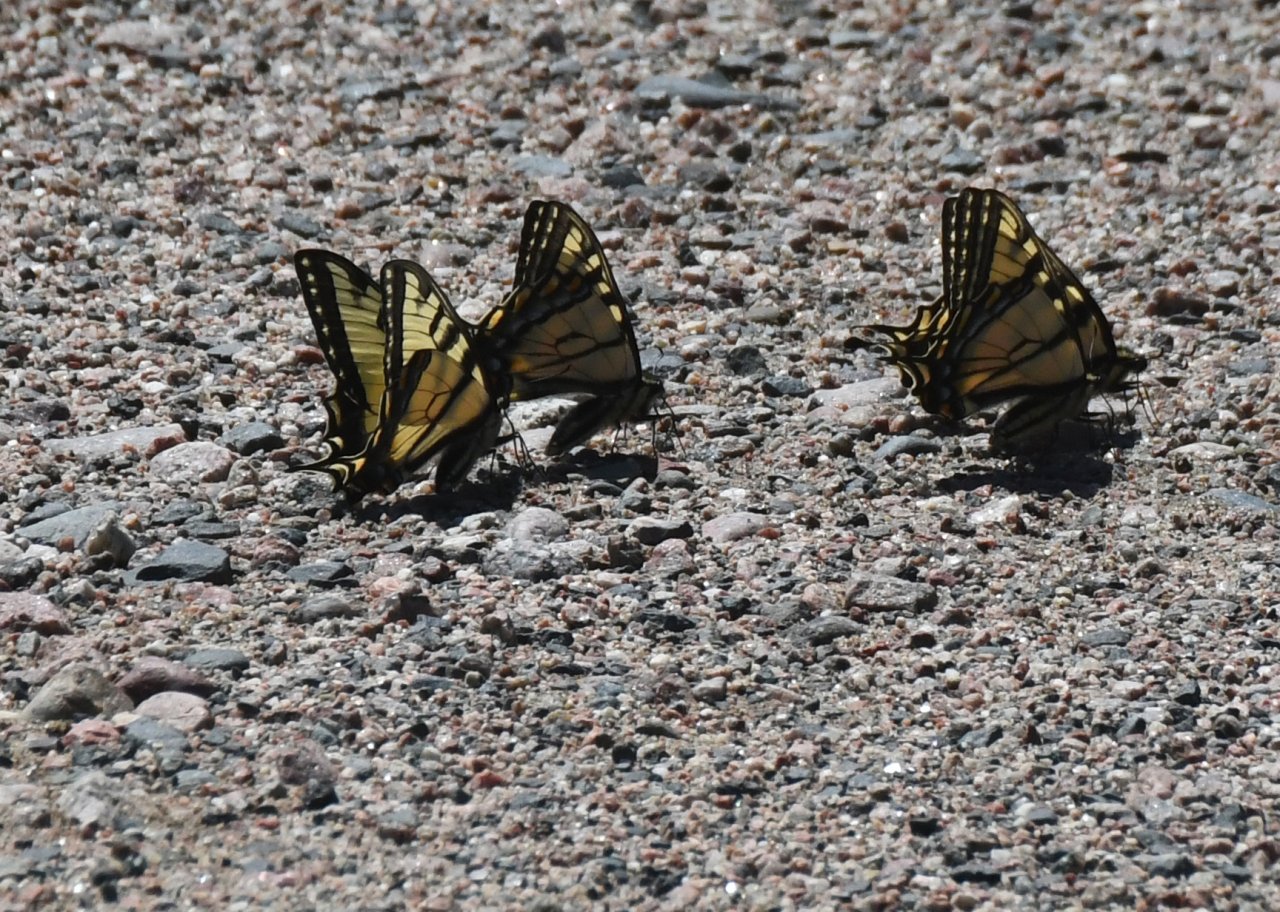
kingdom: Animalia
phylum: Arthropoda
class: Insecta
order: Lepidoptera
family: Papilionidae
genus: Pterourus
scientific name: Pterourus canadensis
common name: Canadian Tiger Swallowtail
